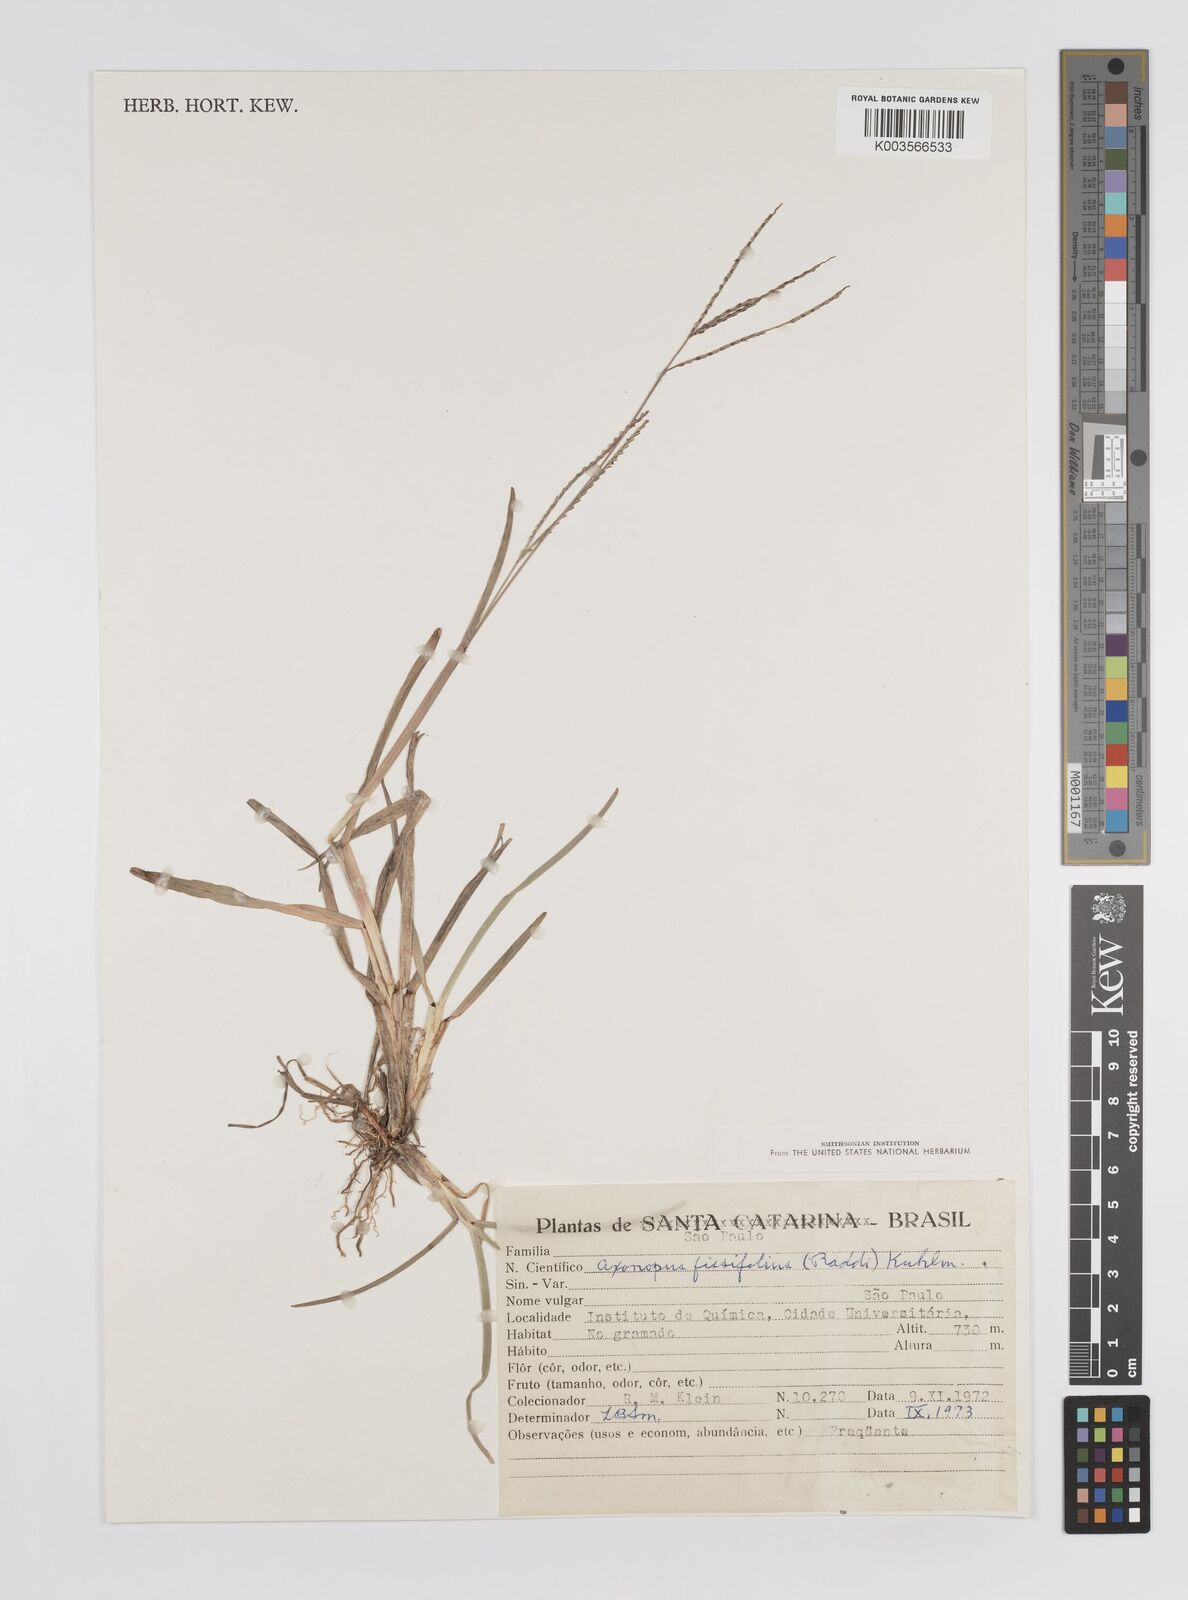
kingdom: Plantae
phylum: Tracheophyta
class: Liliopsida
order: Poales
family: Poaceae
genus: Axonopus
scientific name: Axonopus fissifolius
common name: Common carpetgrass
